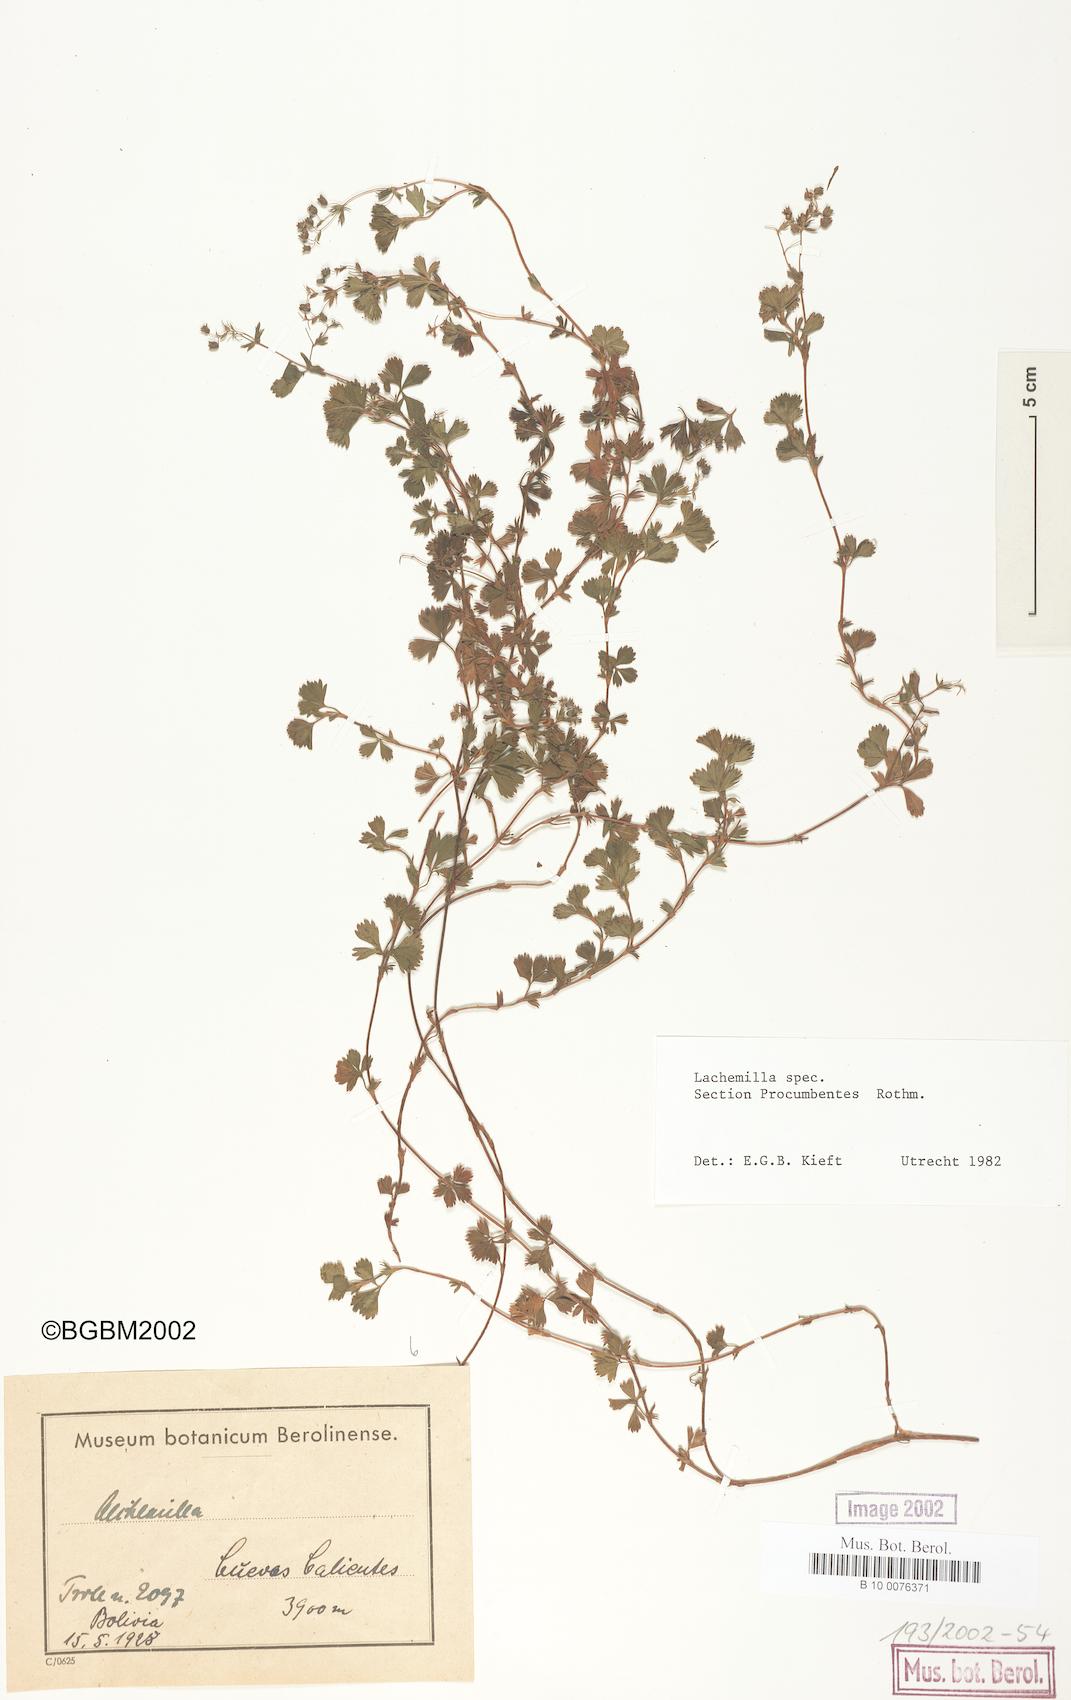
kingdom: Plantae
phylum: Tracheophyta
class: Magnoliopsida
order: Rosales
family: Rosaceae
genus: Lachemilla
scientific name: Lachemilla
